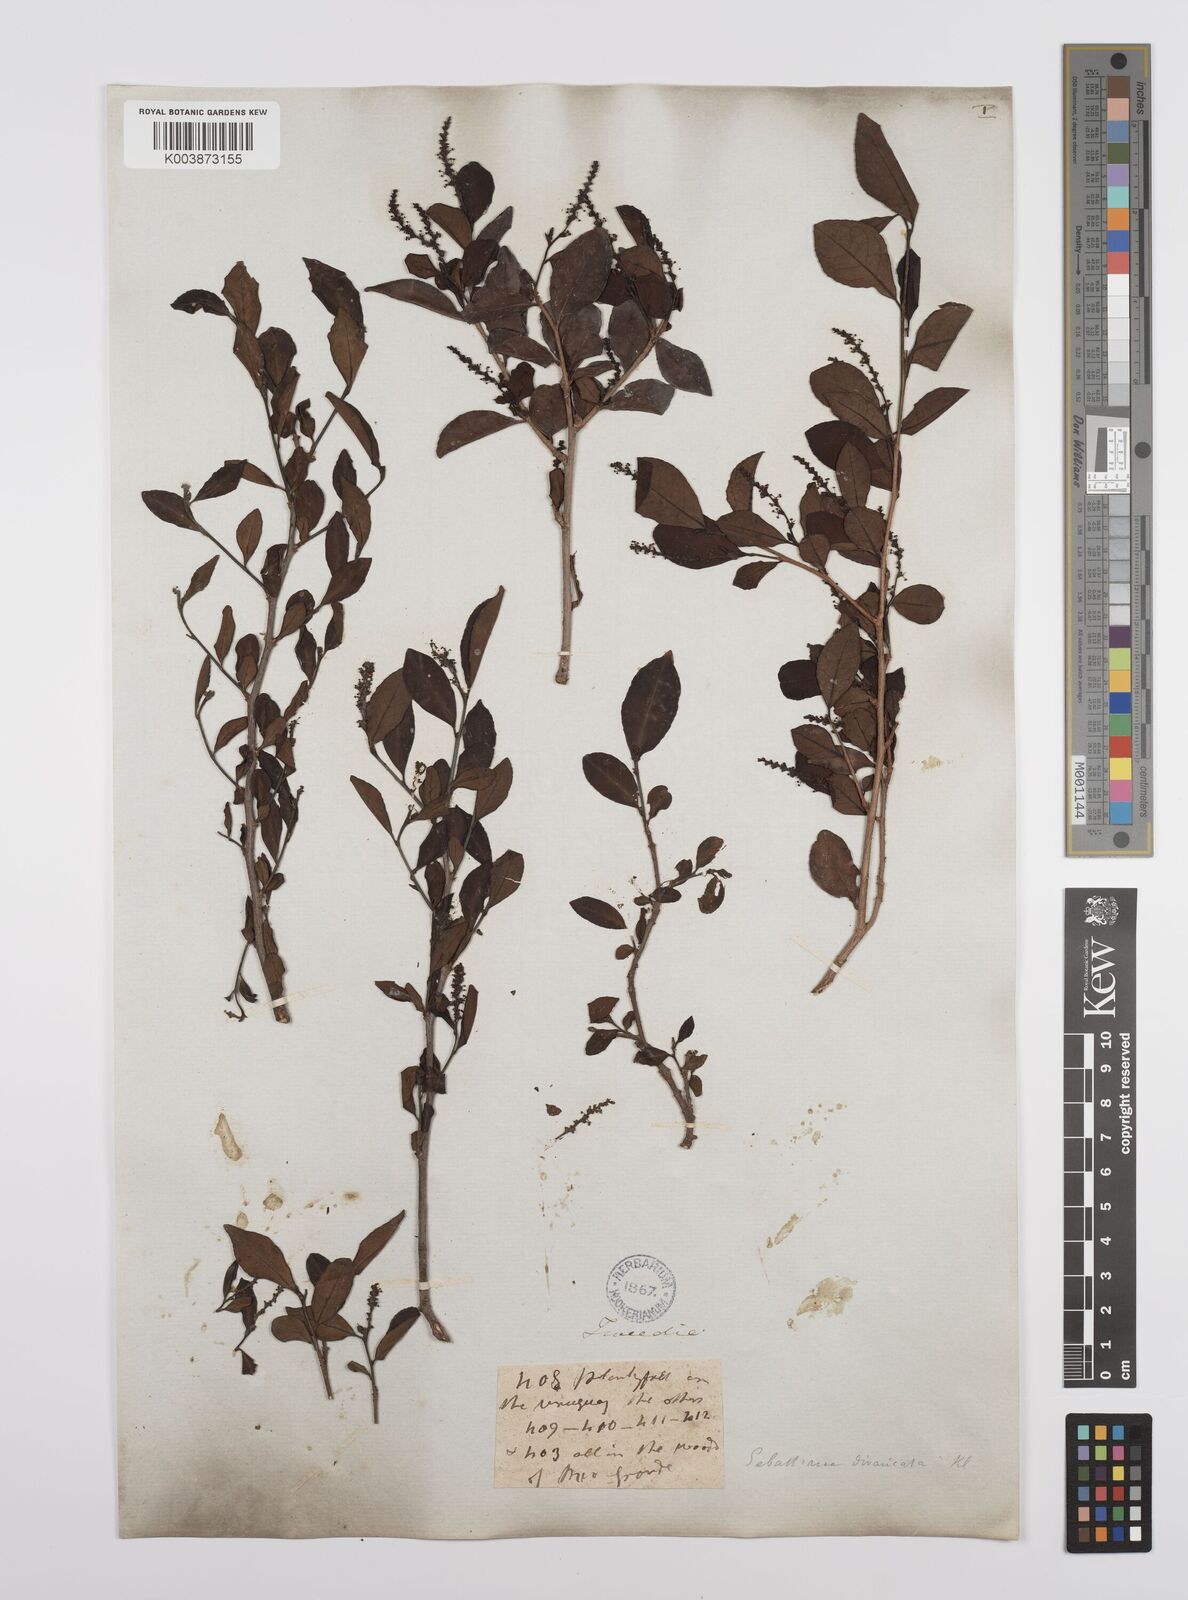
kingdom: Plantae
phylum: Tracheophyta
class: Magnoliopsida
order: Malpighiales
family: Euphorbiaceae
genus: Sebastiania
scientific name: Sebastiania
